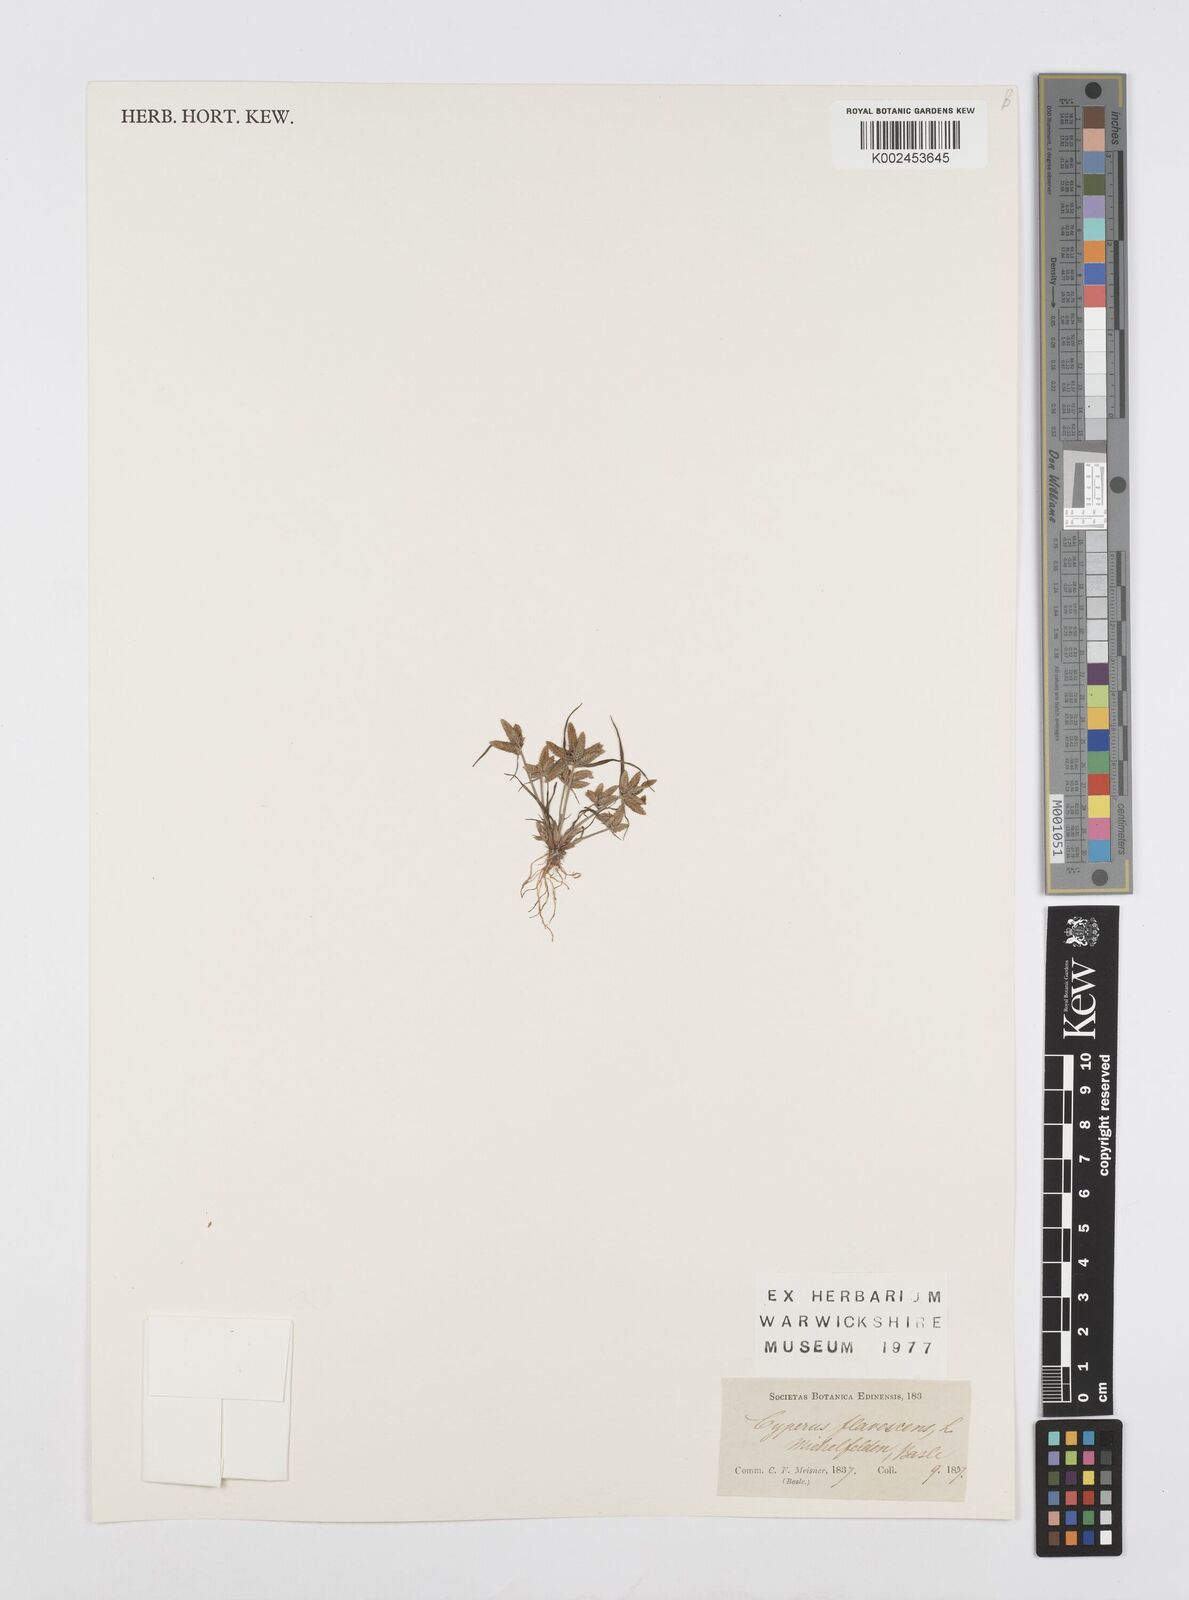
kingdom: Plantae
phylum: Tracheophyta
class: Liliopsida
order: Poales
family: Cyperaceae
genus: Cyperus
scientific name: Cyperus flavescens
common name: Yellow galingale
